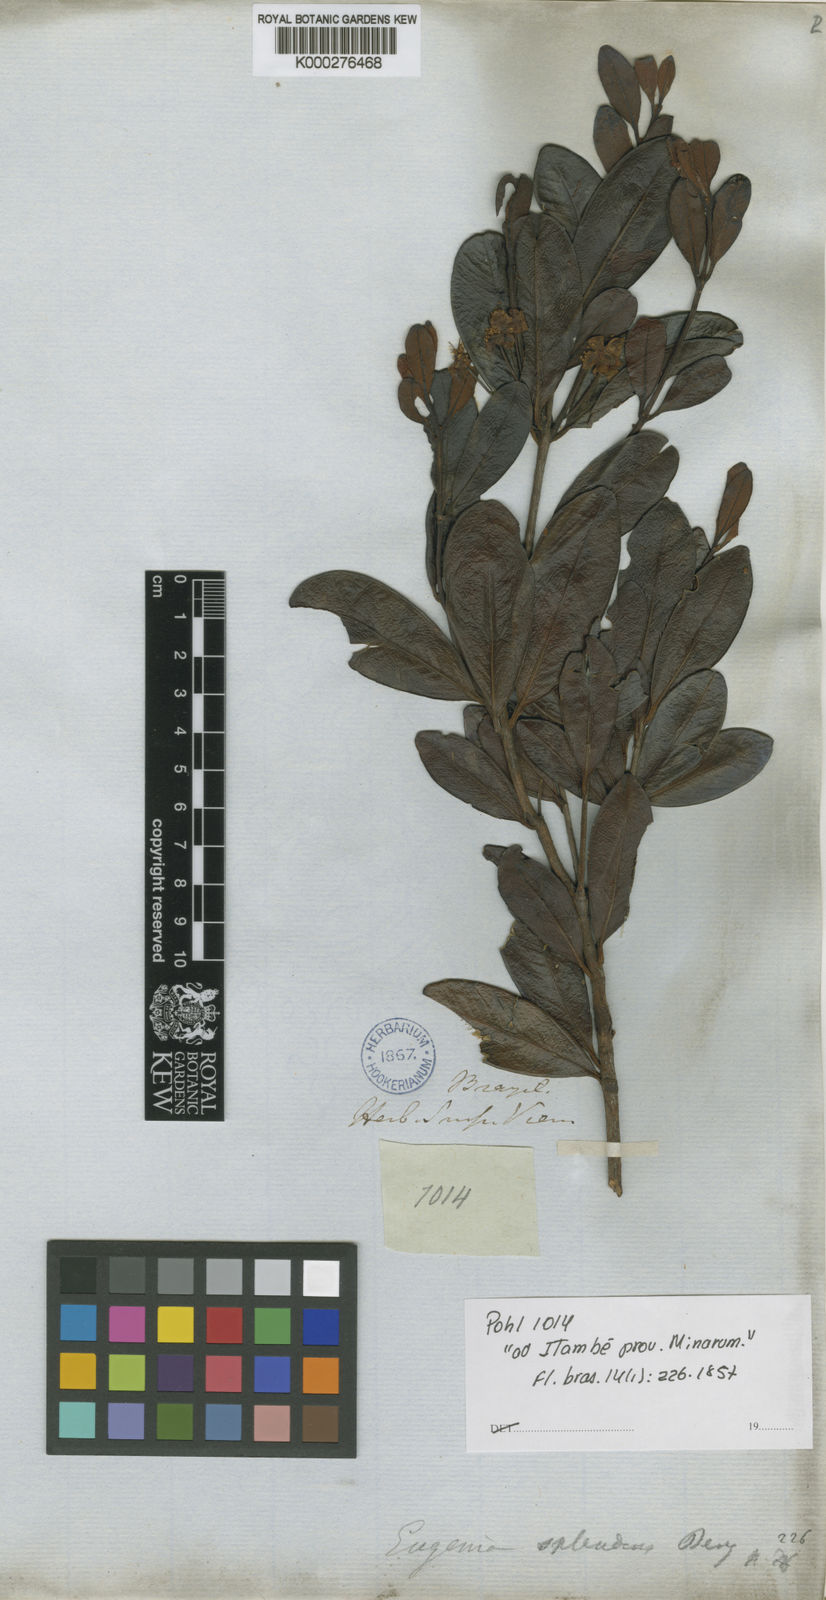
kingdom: Plantae
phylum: Tracheophyta
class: Magnoliopsida
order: Myrtales
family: Myrtaceae
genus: Eugenia
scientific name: Eugenia splendens
